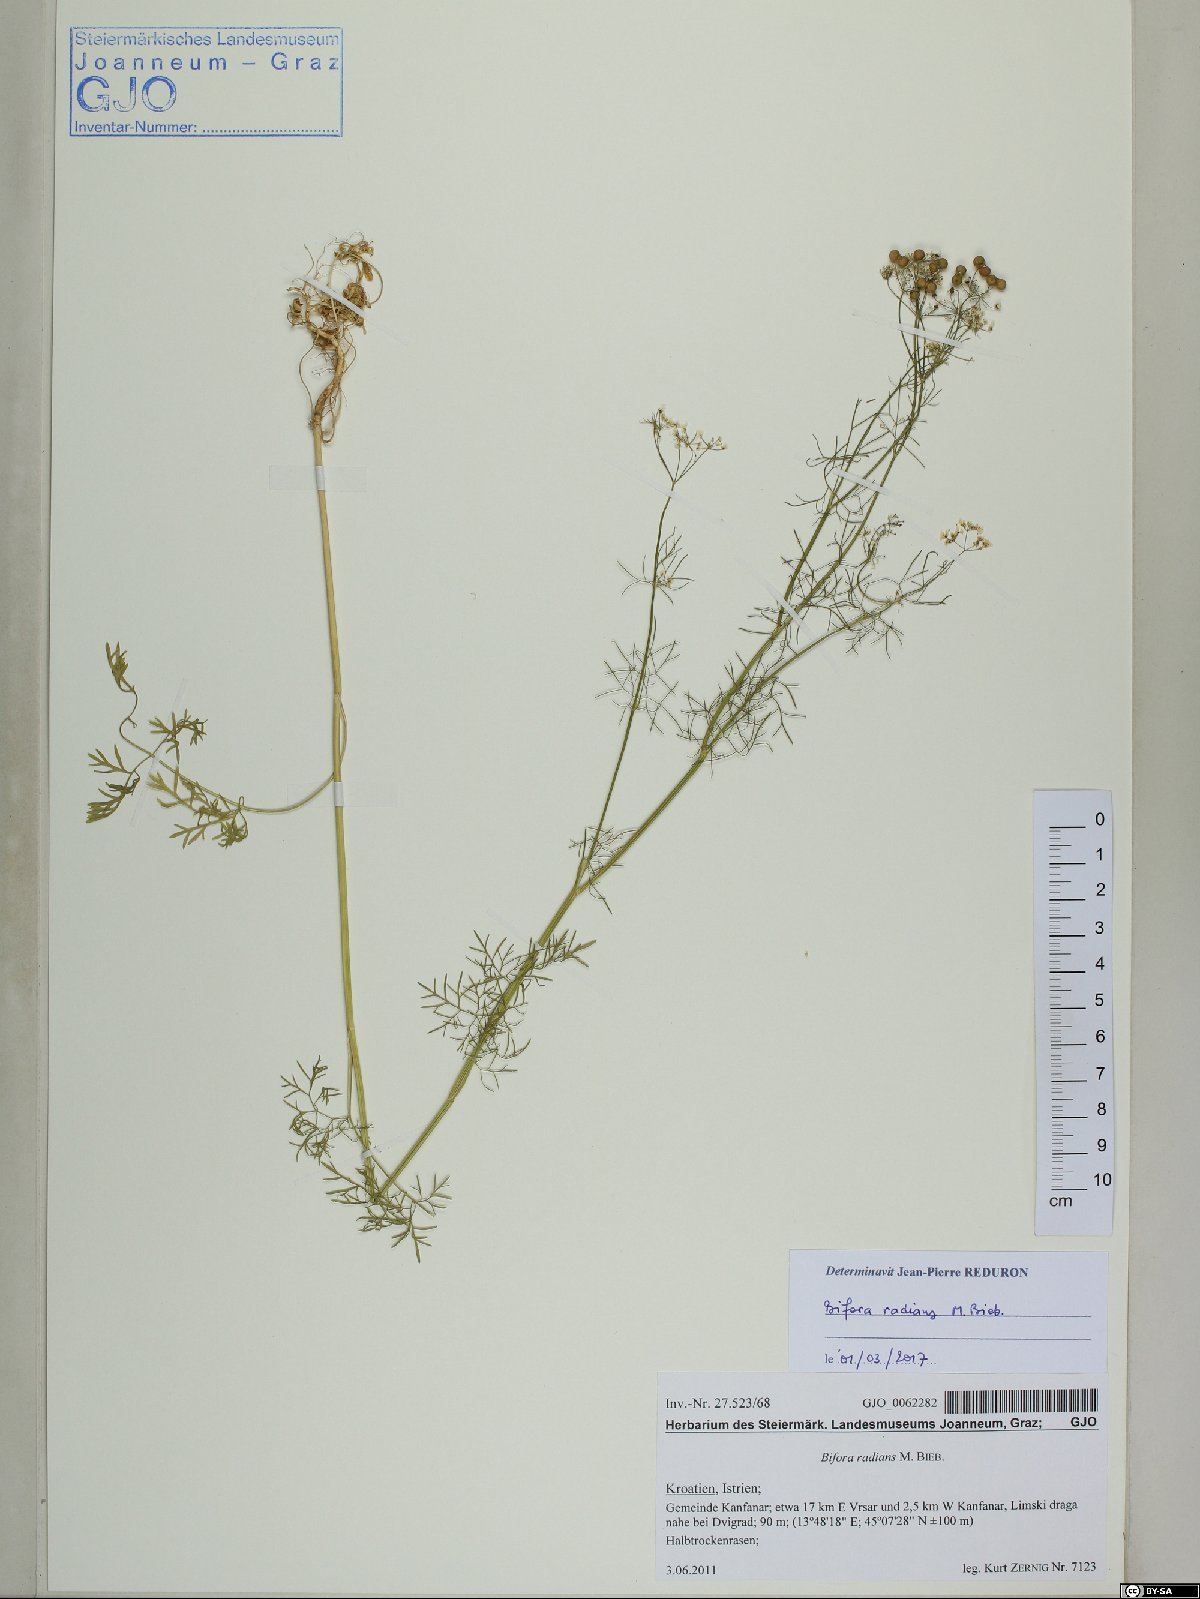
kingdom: Plantae
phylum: Tracheophyta
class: Magnoliopsida
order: Apiales
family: Apiaceae
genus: Bifora
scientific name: Bifora radians
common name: Wild bishop
